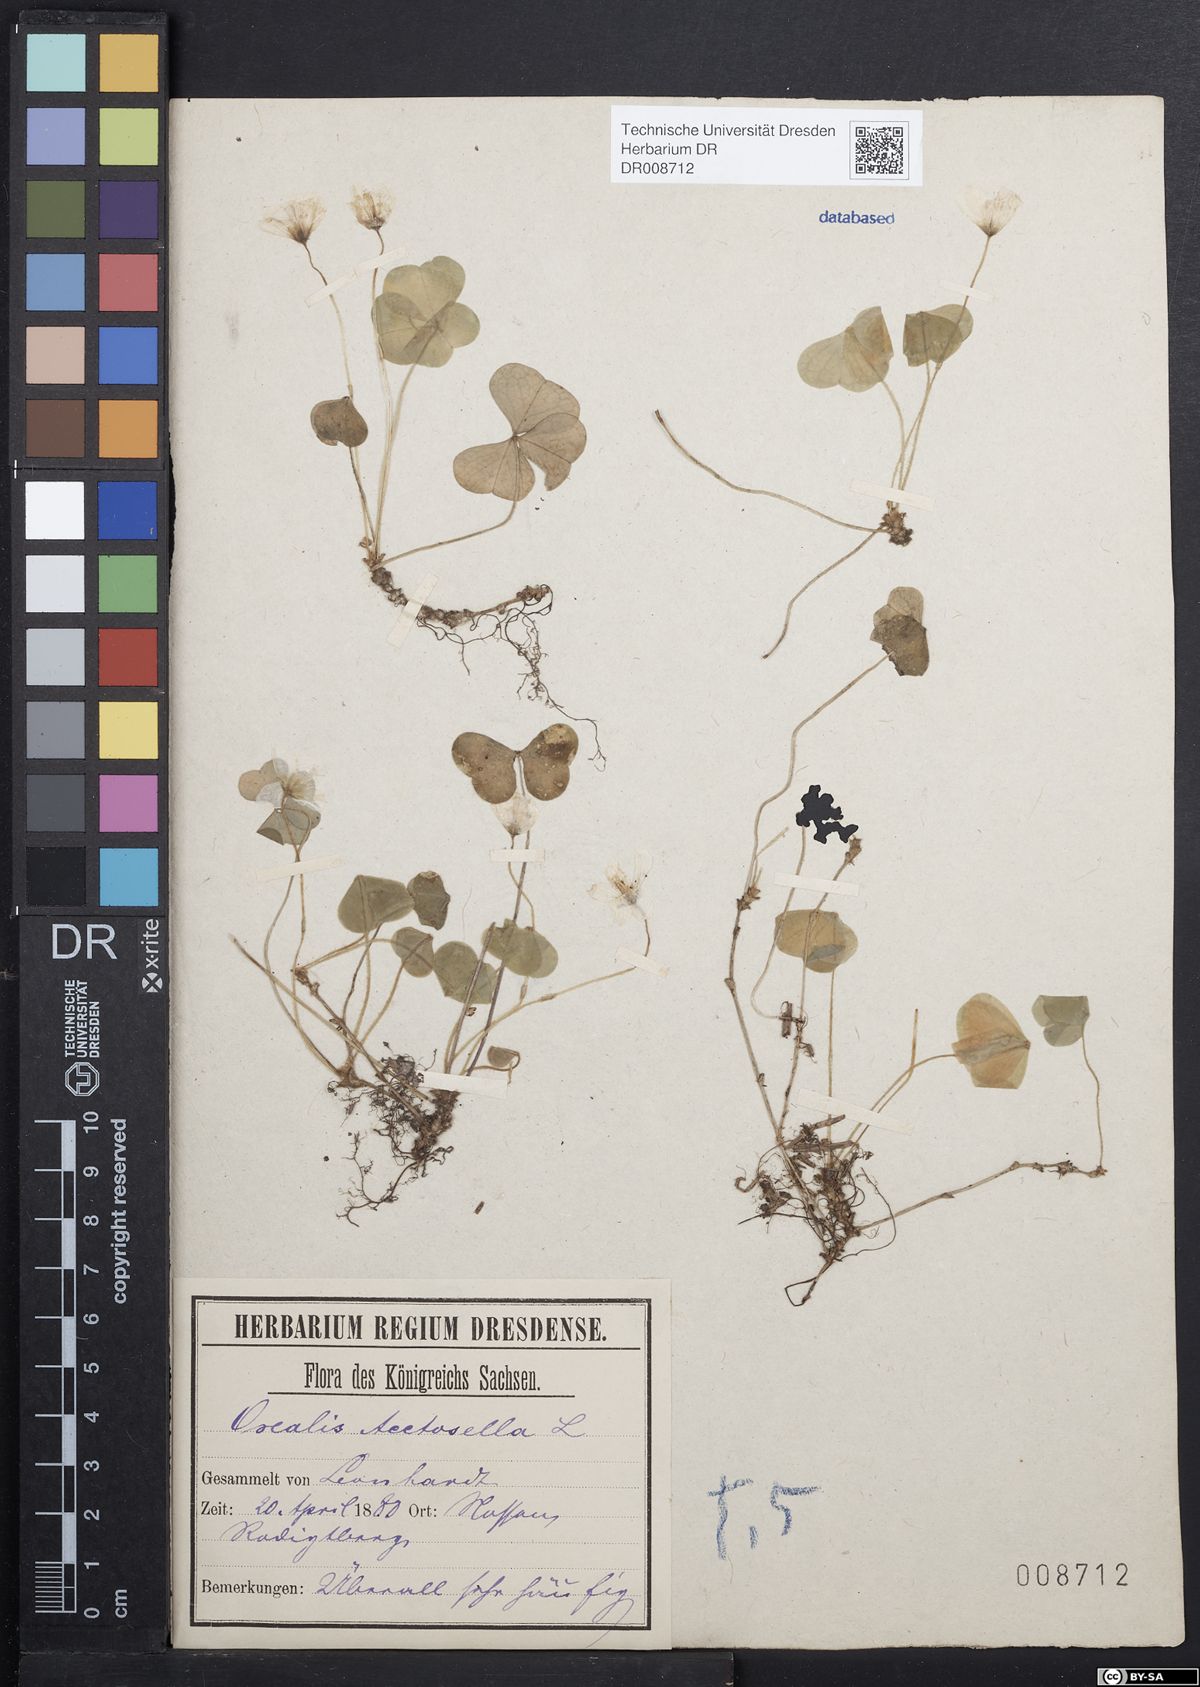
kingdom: Plantae
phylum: Tracheophyta
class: Magnoliopsida
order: Oxalidales
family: Oxalidaceae
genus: Oxalis
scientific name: Oxalis acetosella
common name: Wood-sorrel
